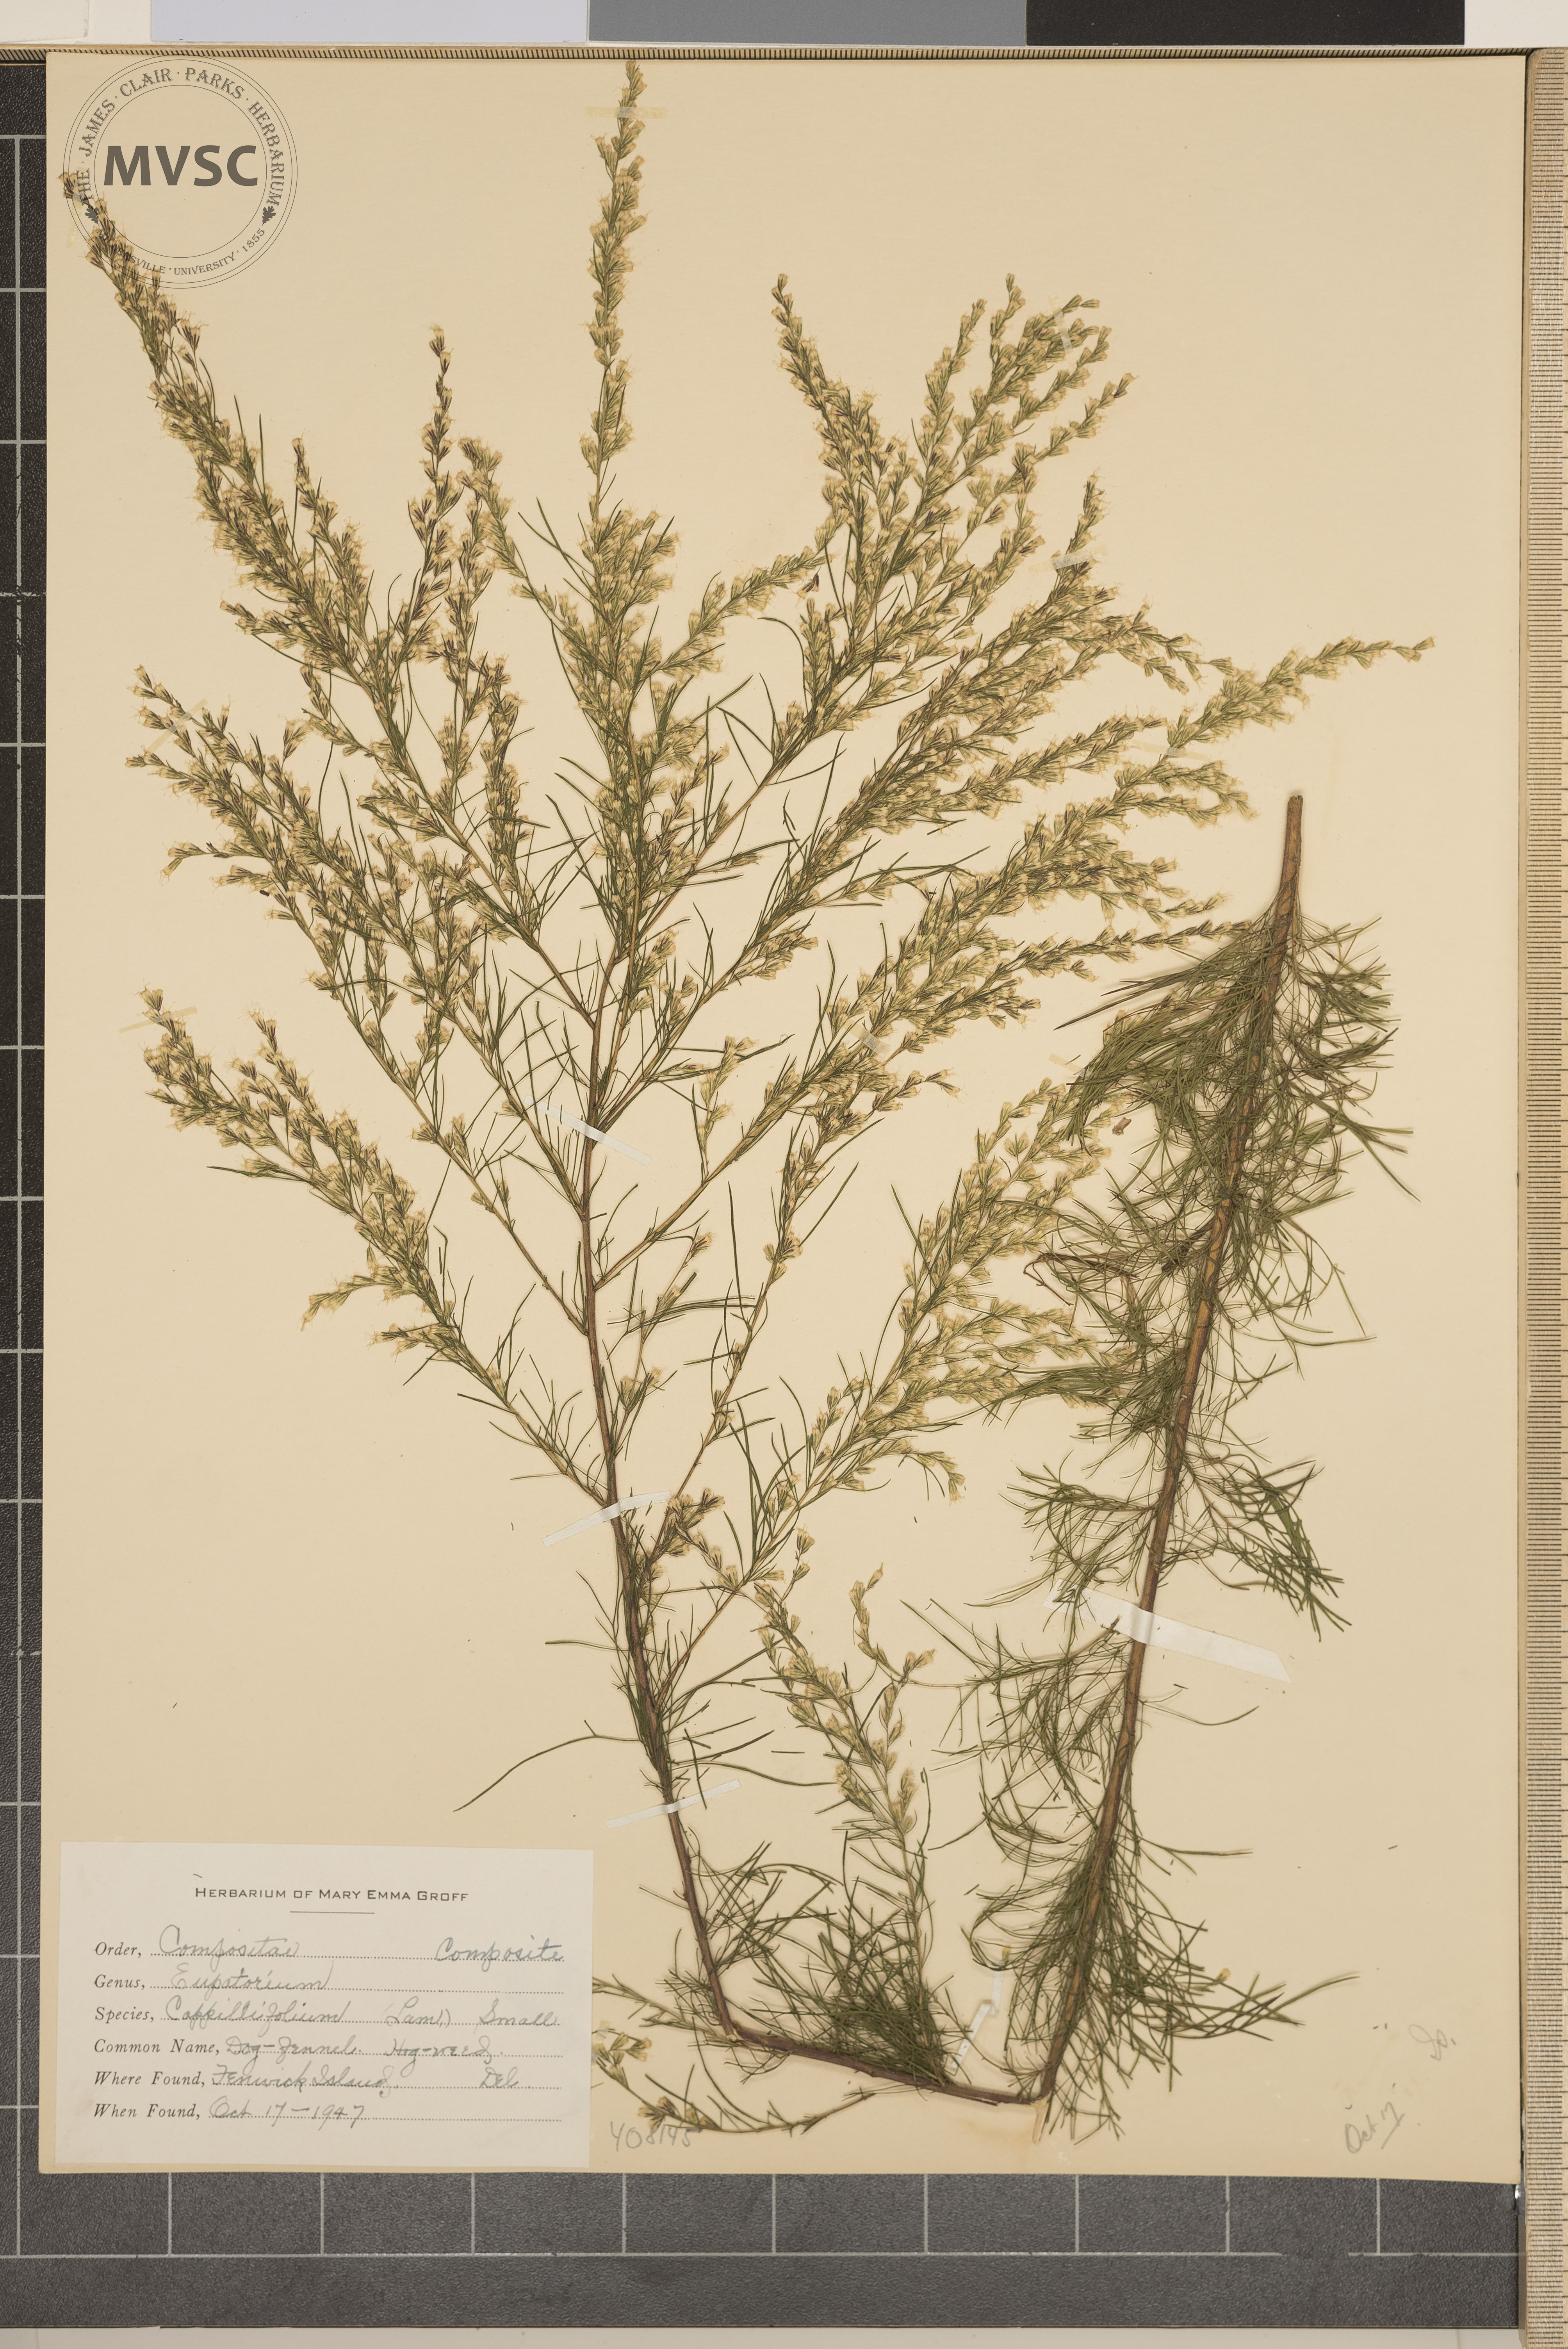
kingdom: Plantae
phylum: Tracheophyta
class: Magnoliopsida
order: Asterales
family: Asteraceae
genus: Eupatorium
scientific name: Eupatorium capillifolium
